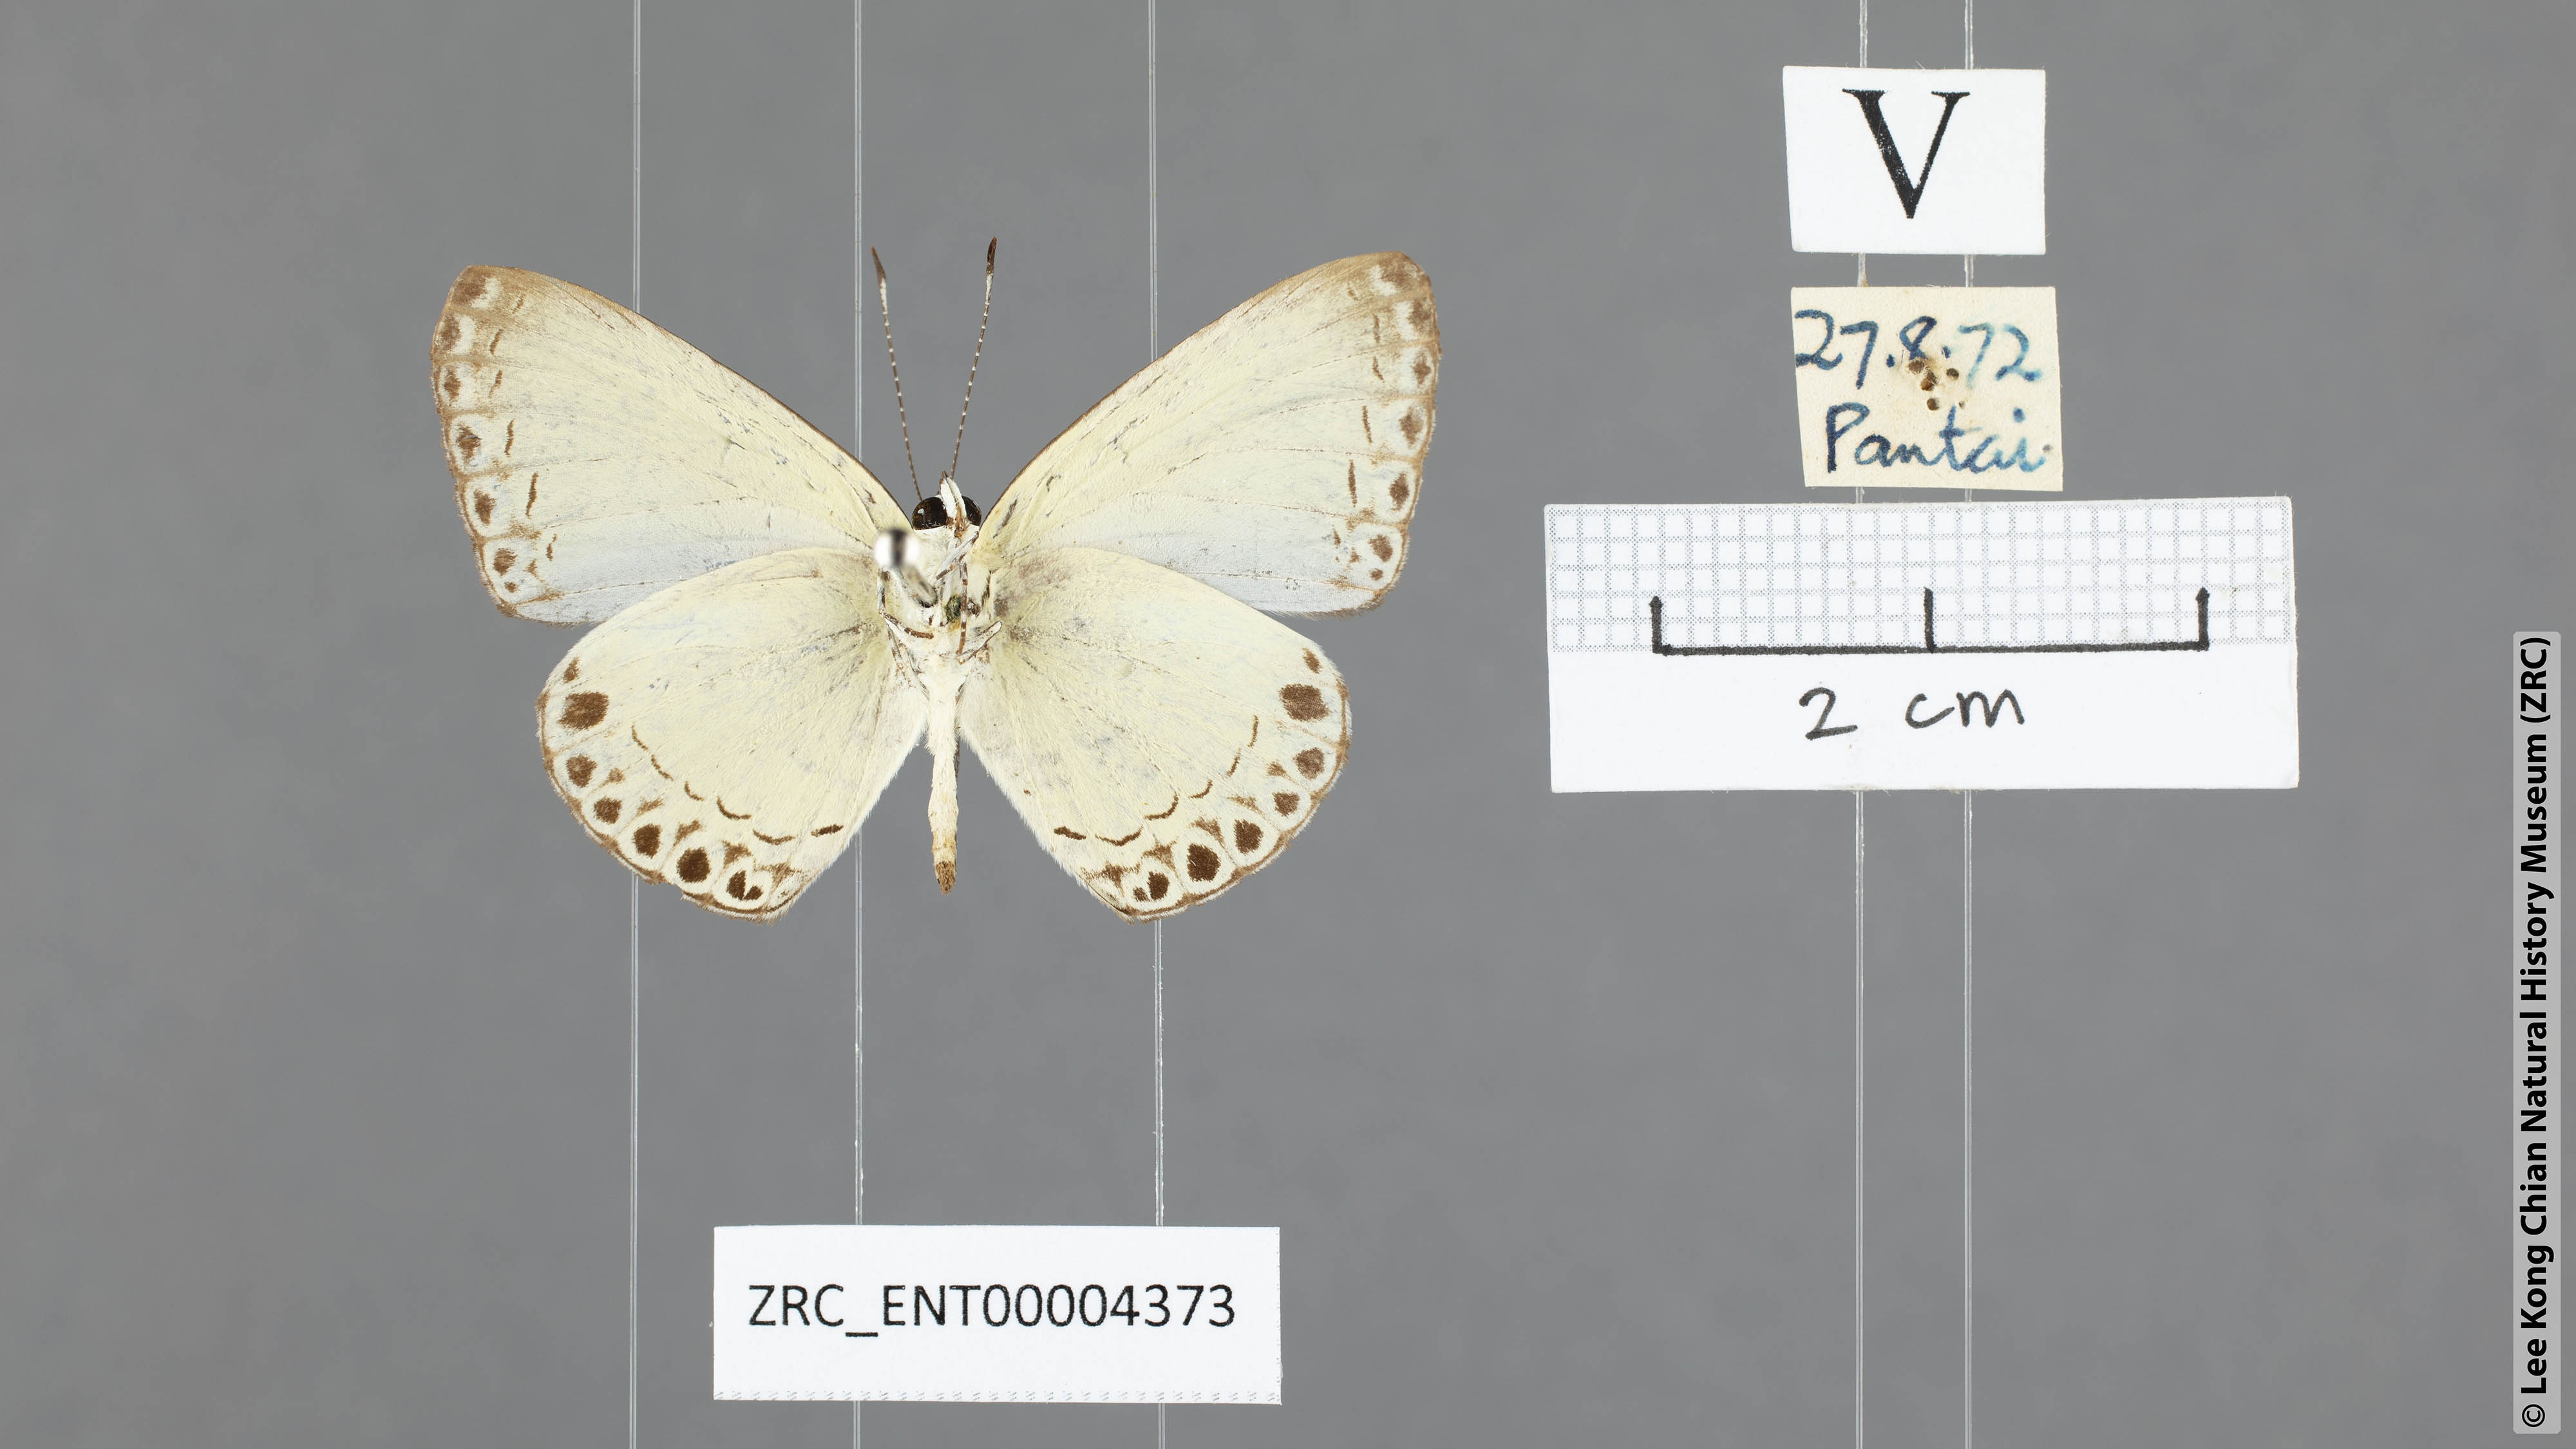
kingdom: Animalia
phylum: Arthropoda
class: Insecta
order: Lepidoptera
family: Lycaenidae
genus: Lycaenopsis
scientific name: Lycaenopsis haraldus
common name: Felder's hedge blue
